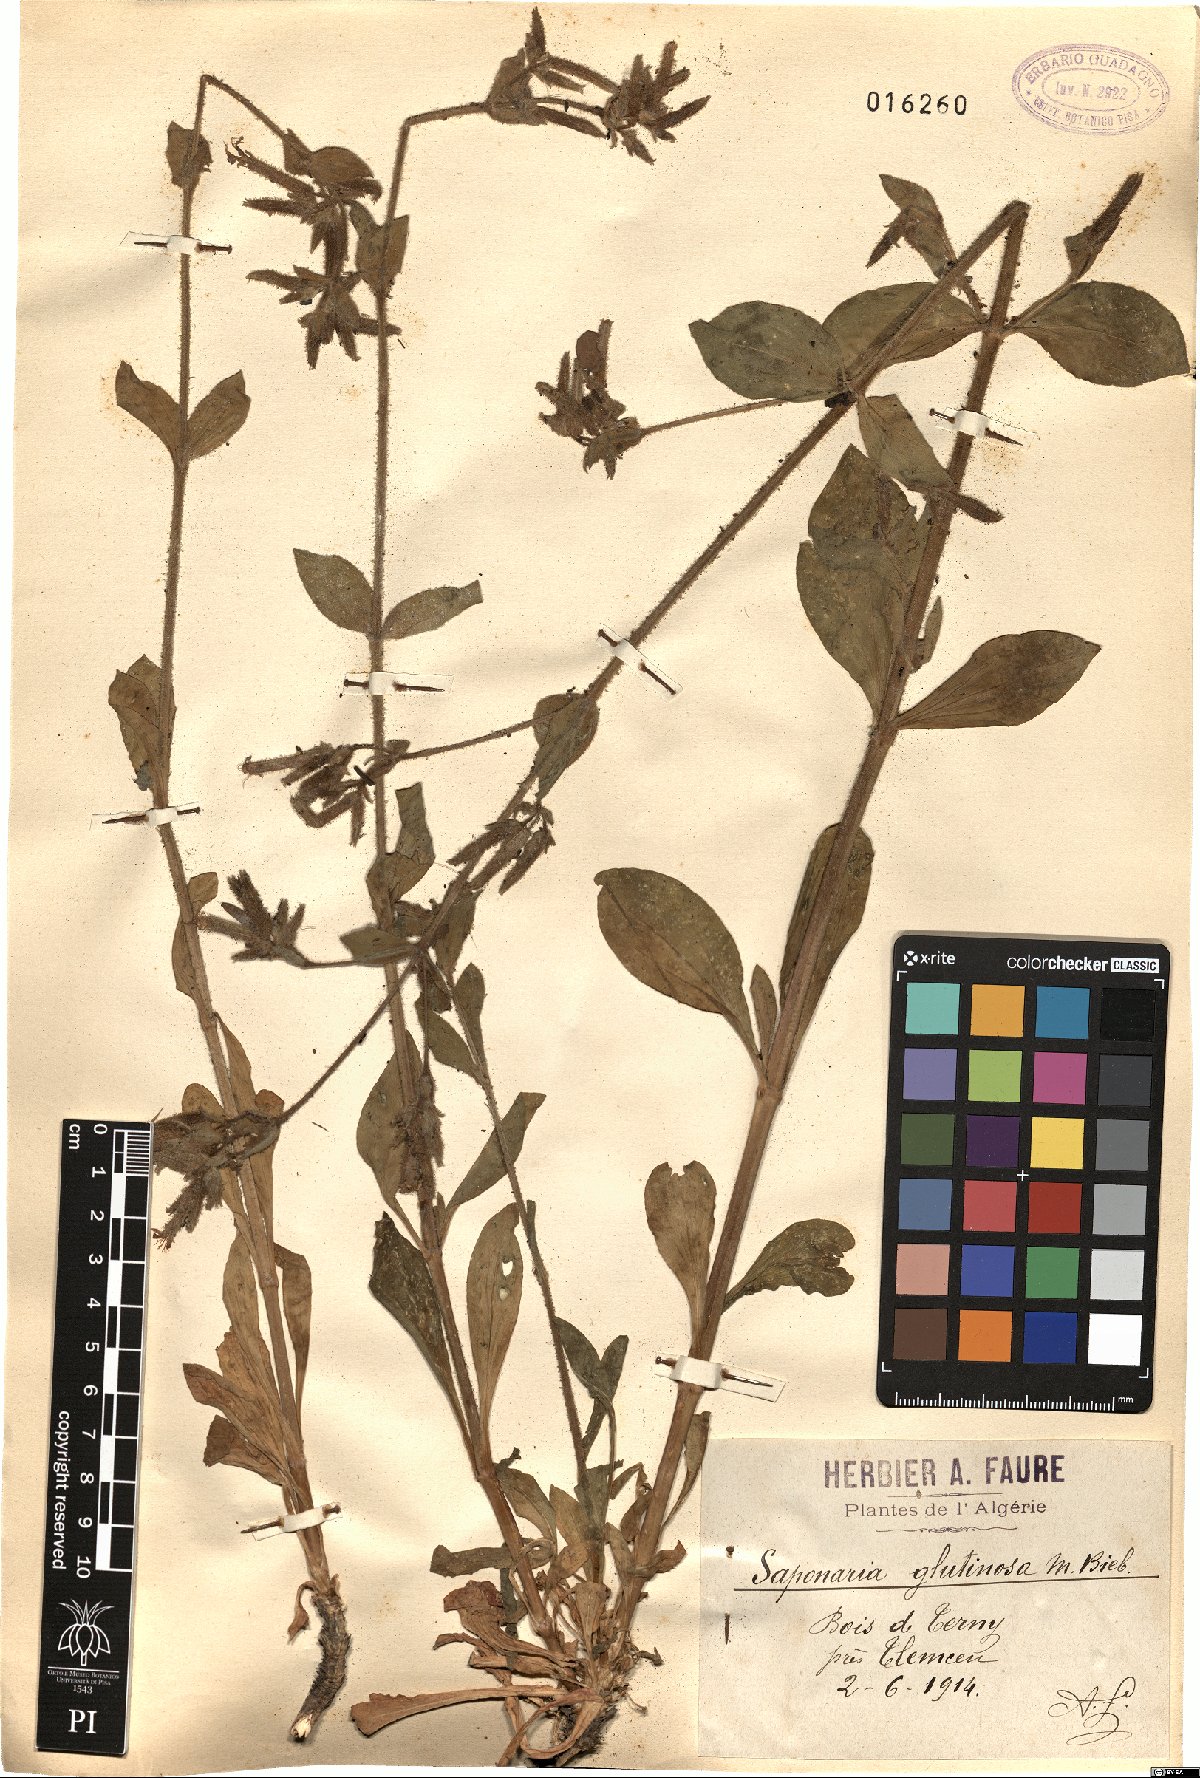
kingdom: Plantae
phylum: Tracheophyta
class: Magnoliopsida
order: Caryophyllales
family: Caryophyllaceae
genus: Saponaria
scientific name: Saponaria glutinosa
